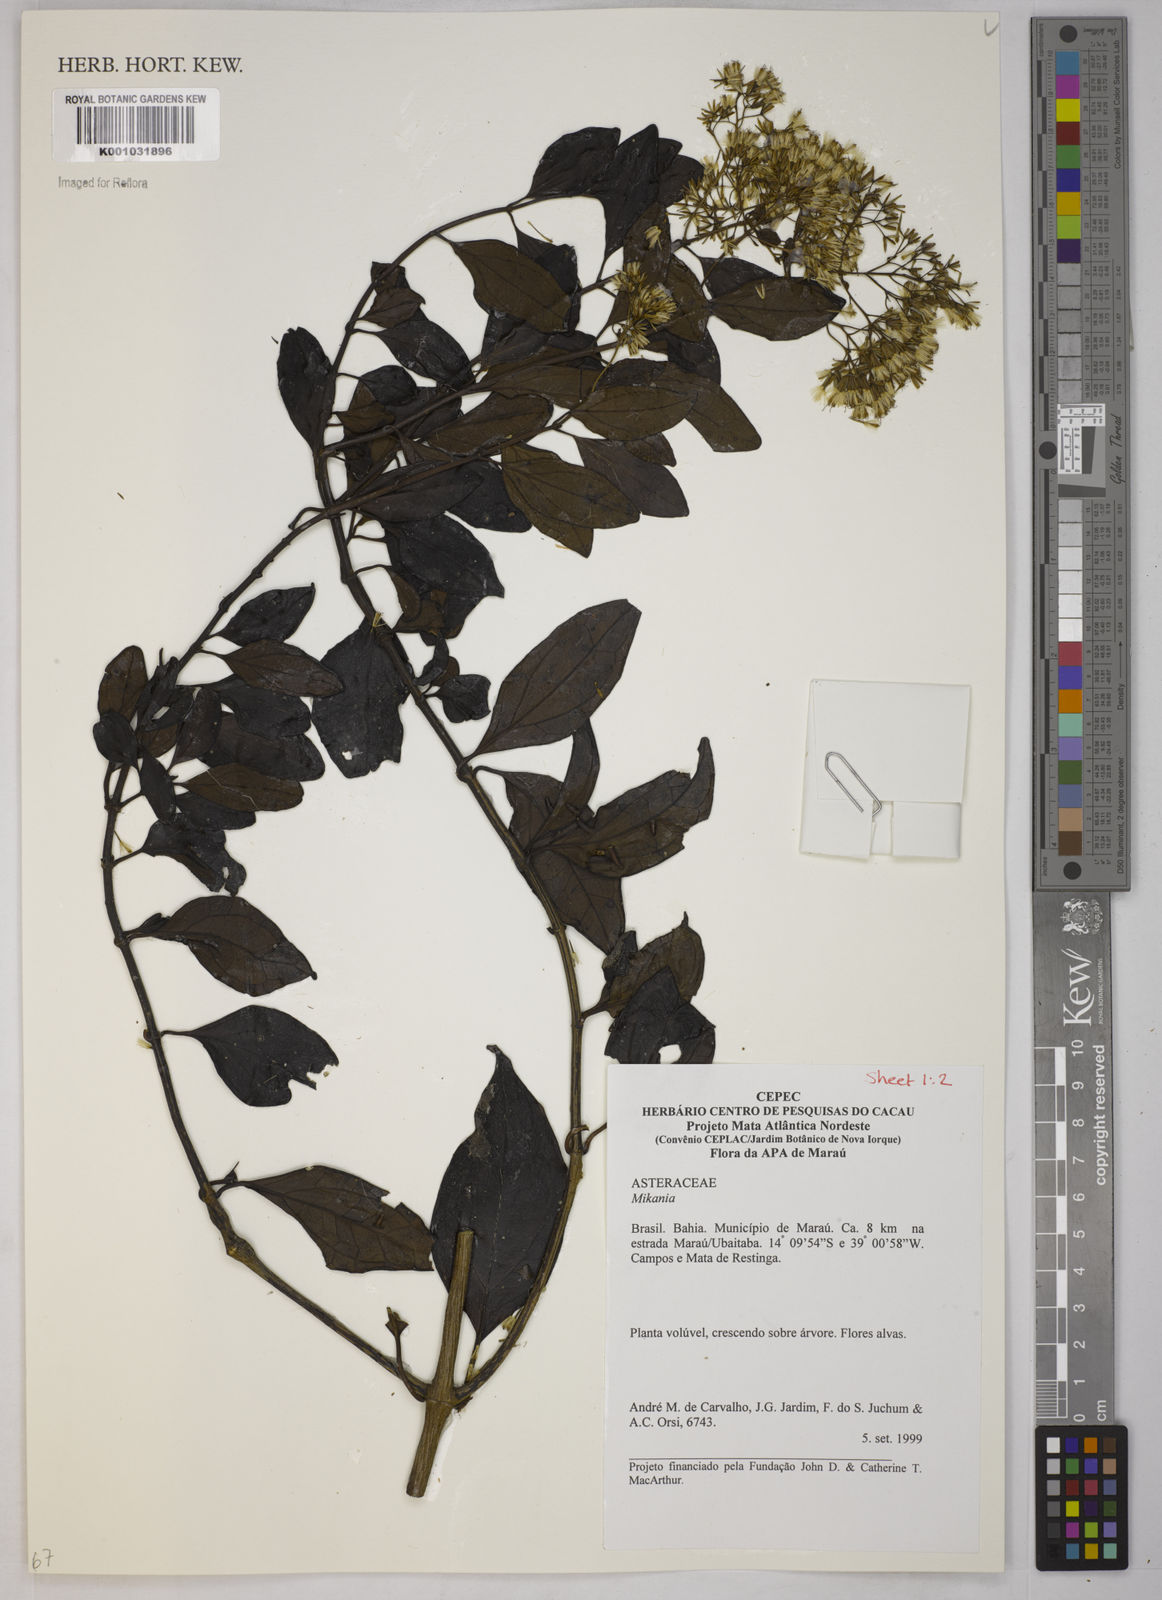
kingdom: Plantae
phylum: Tracheophyta
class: Magnoliopsida
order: Asterales
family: Asteraceae
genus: Mikania
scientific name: Mikania
